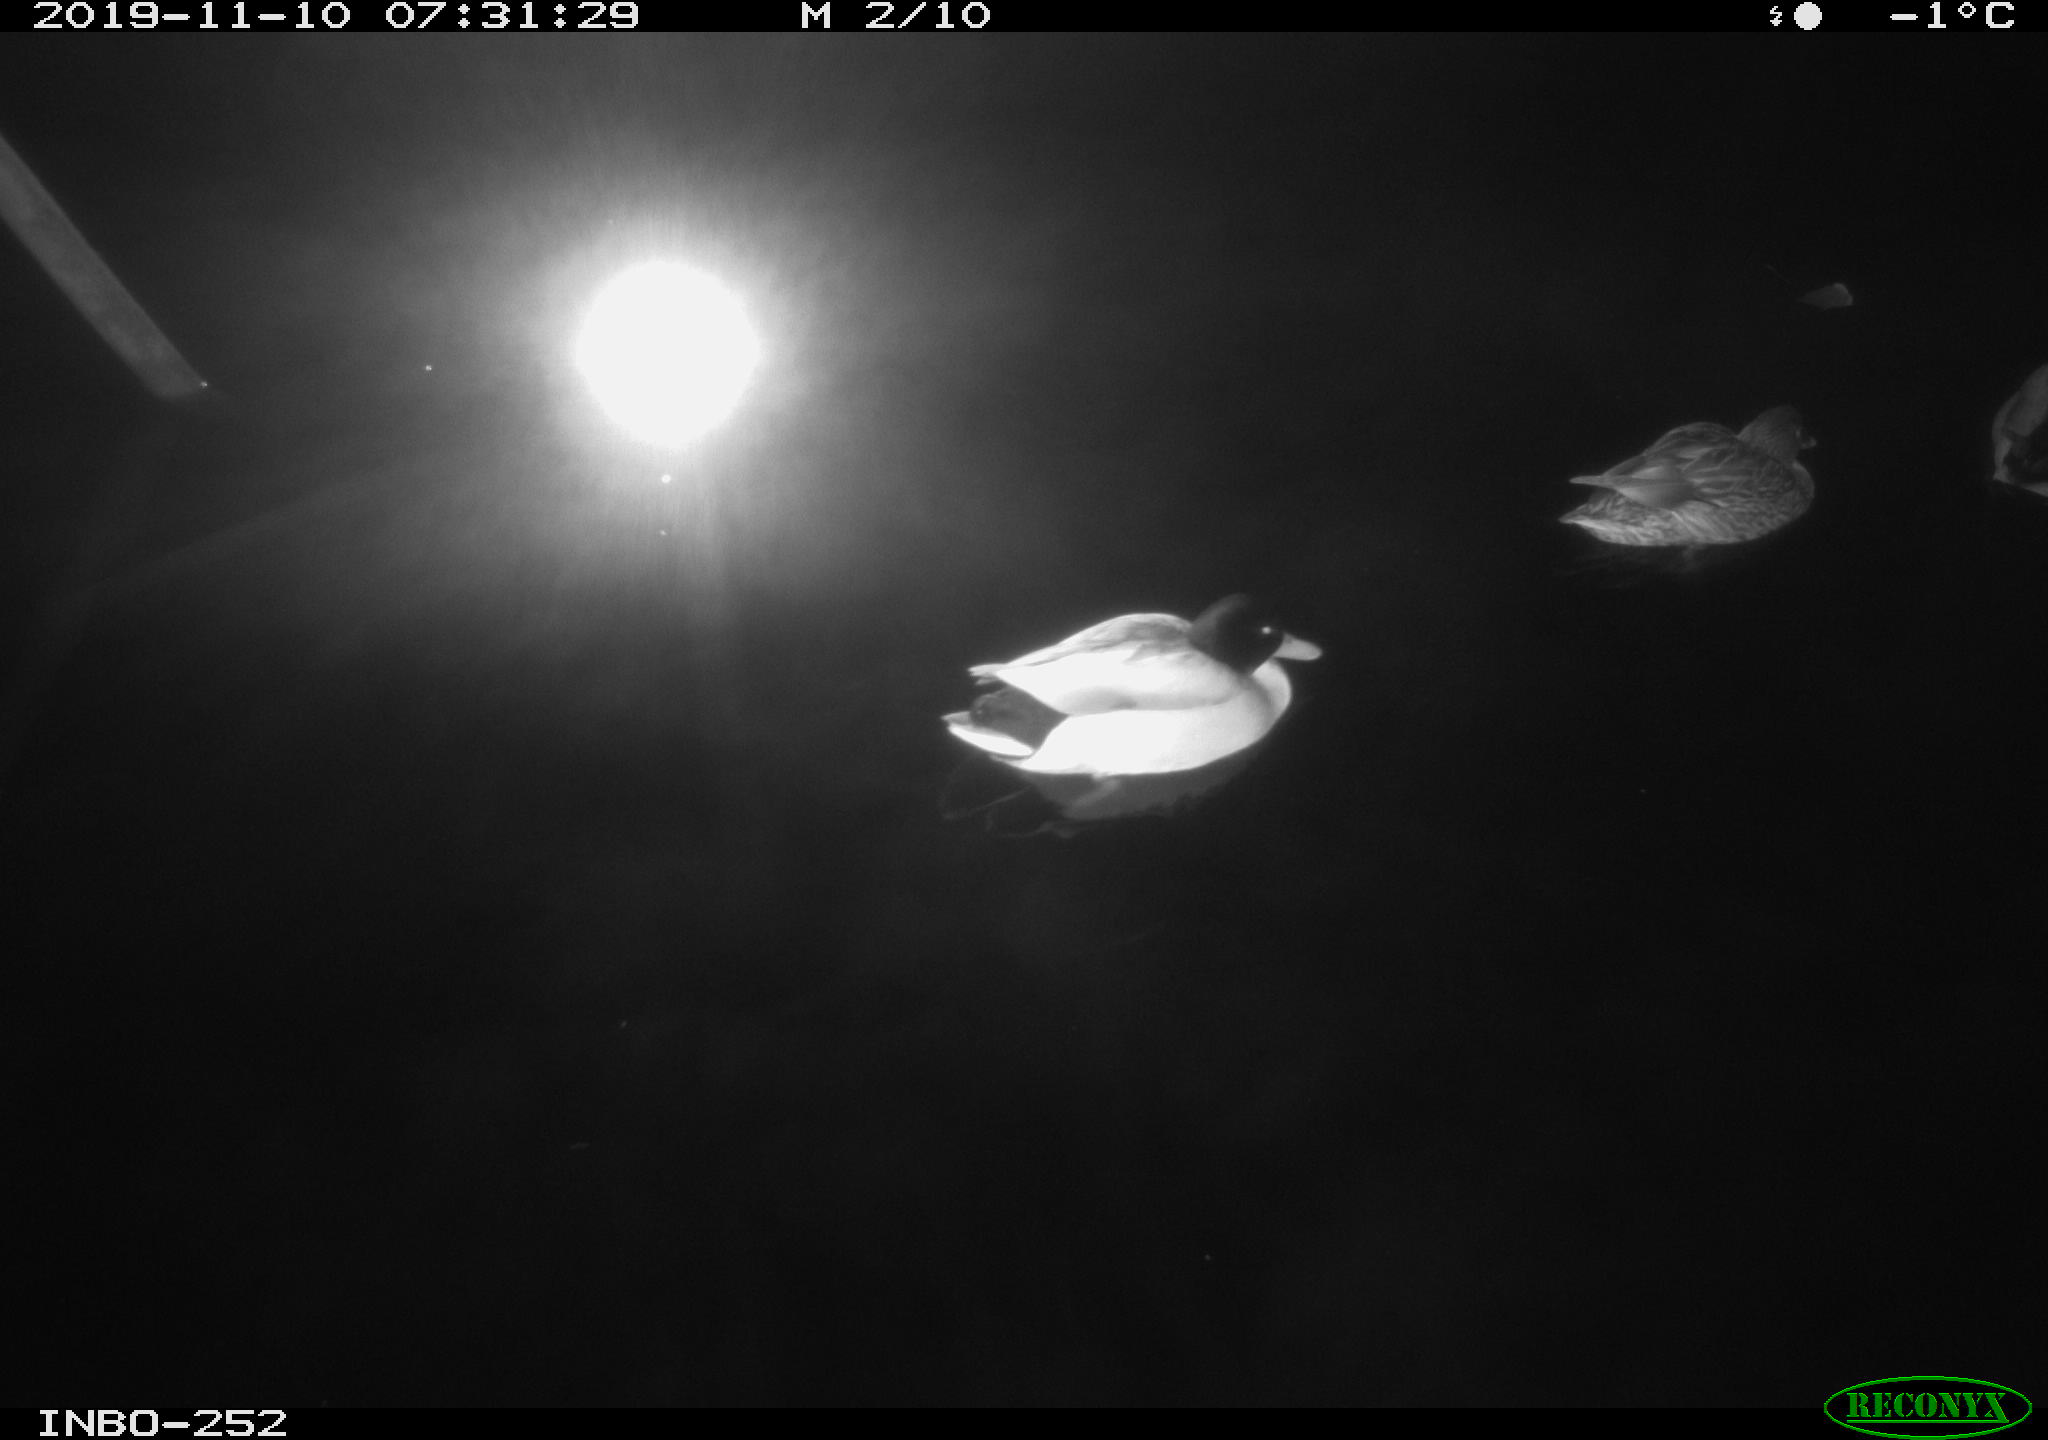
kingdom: Animalia
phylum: Chordata
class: Aves
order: Anseriformes
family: Anatidae
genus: Anas
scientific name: Anas platyrhynchos
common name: Mallard
